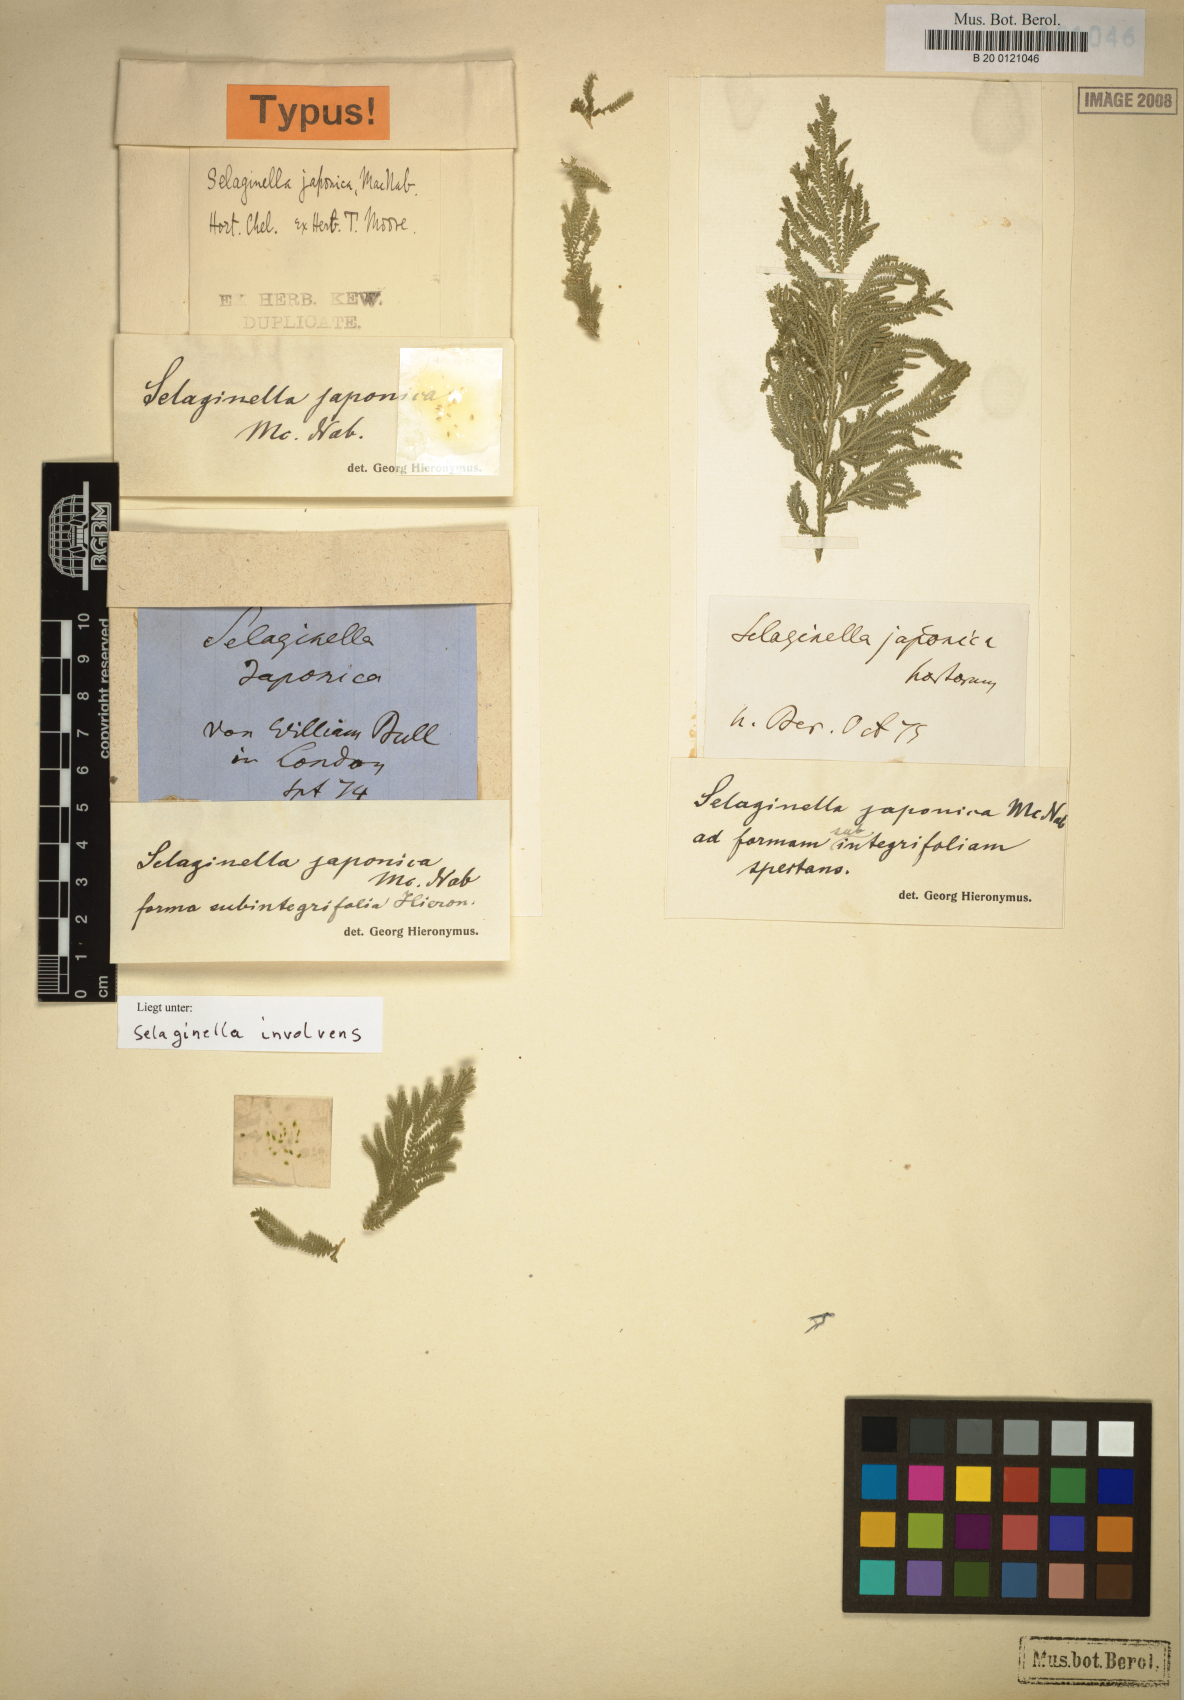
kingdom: Plantae
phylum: Tracheophyta
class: Lycopodiopsida
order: Selaginellales
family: Selaginellaceae
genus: Selaginella
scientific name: Selaginella involvens
